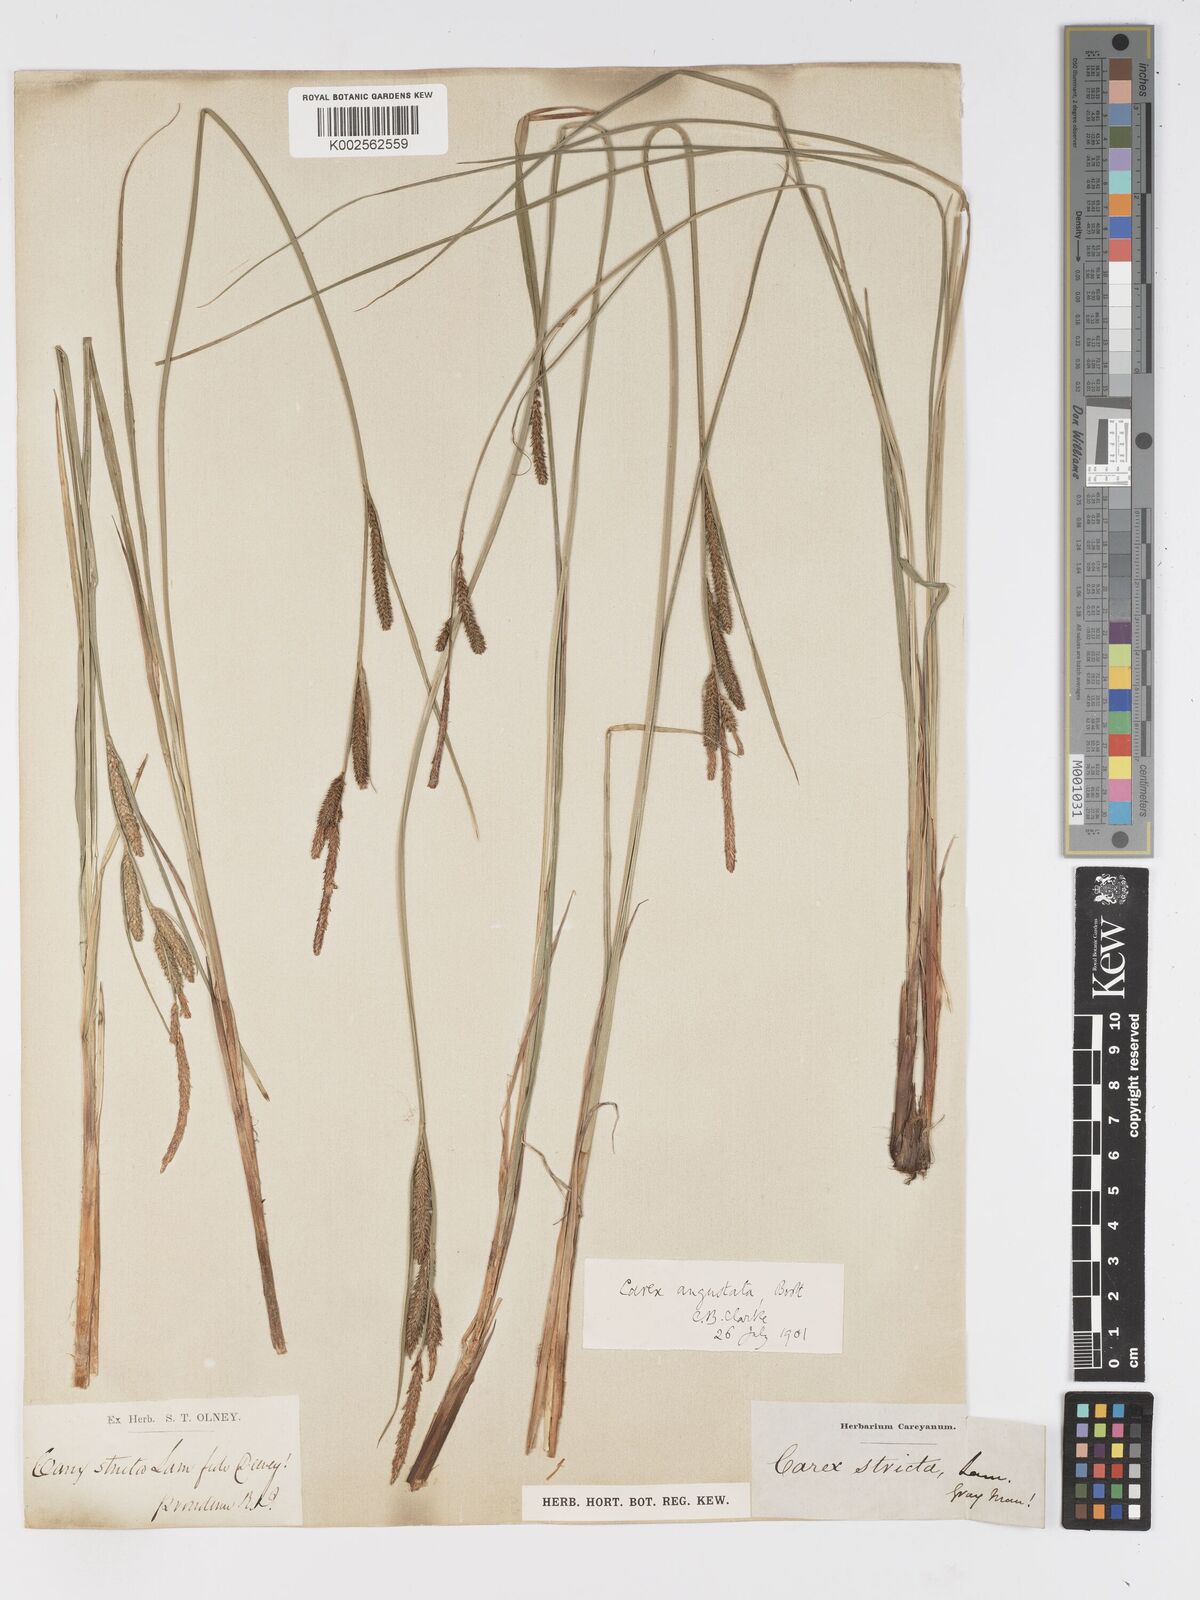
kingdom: Plantae
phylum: Tracheophyta
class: Liliopsida
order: Poales
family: Cyperaceae
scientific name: Cyperaceae
